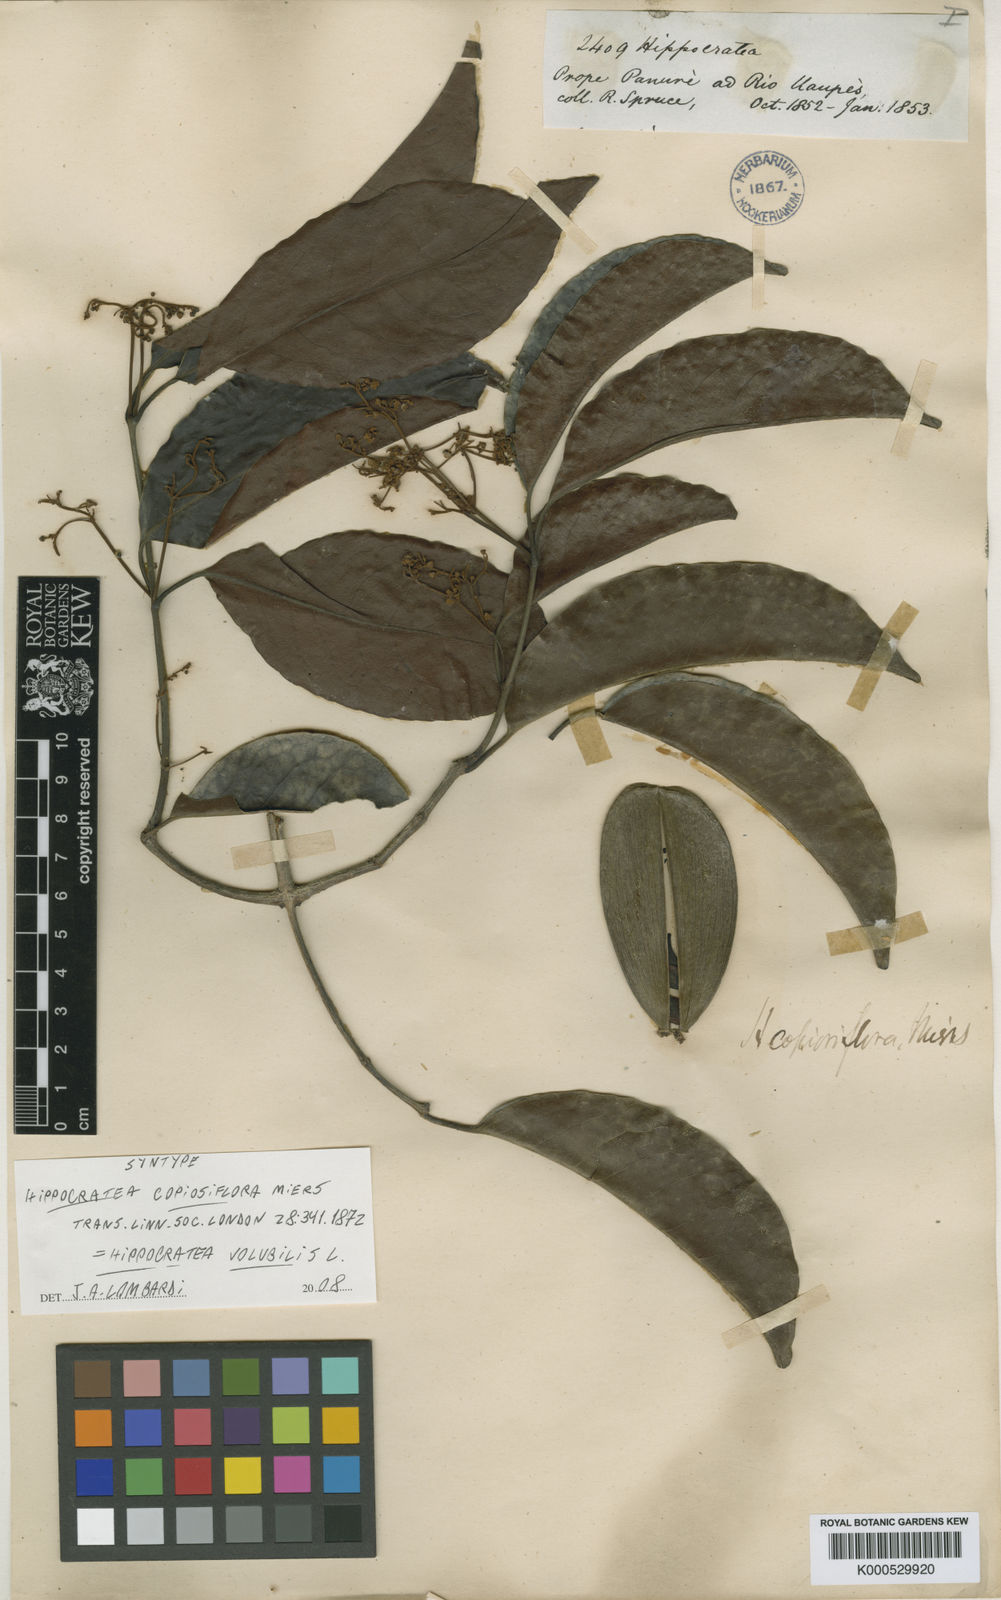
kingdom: Plantae
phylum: Tracheophyta
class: Magnoliopsida
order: Celastrales
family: Celastraceae
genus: Hippocratea
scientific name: Hippocratea volubilis
